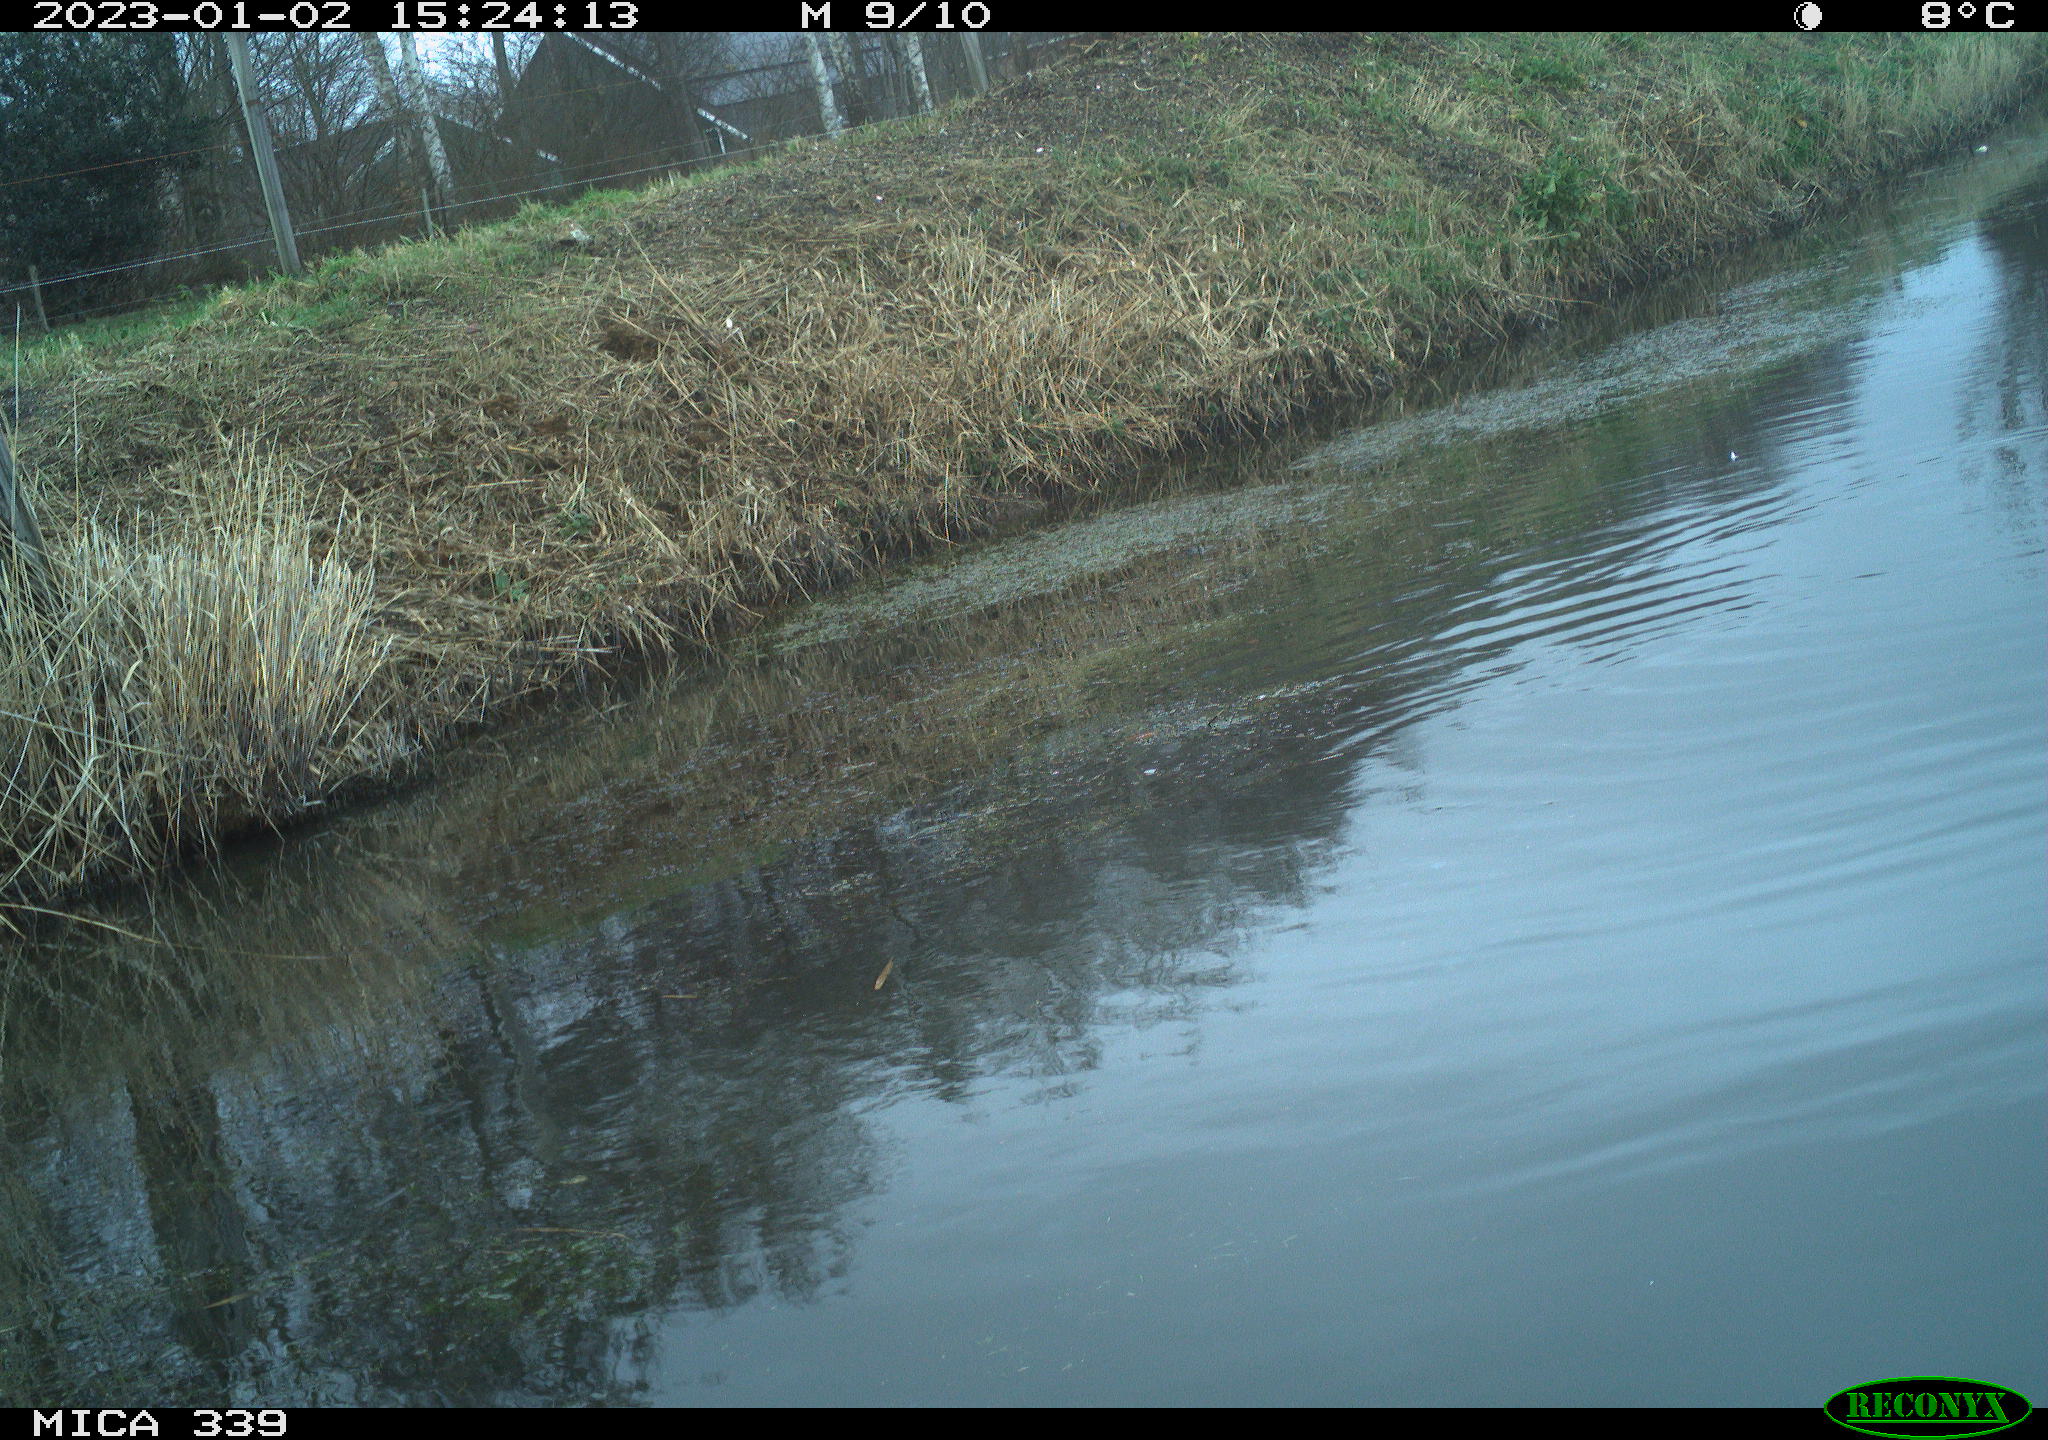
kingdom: Animalia
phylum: Chordata
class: Aves
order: Anseriformes
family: Anatidae
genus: Anas
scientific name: Anas
